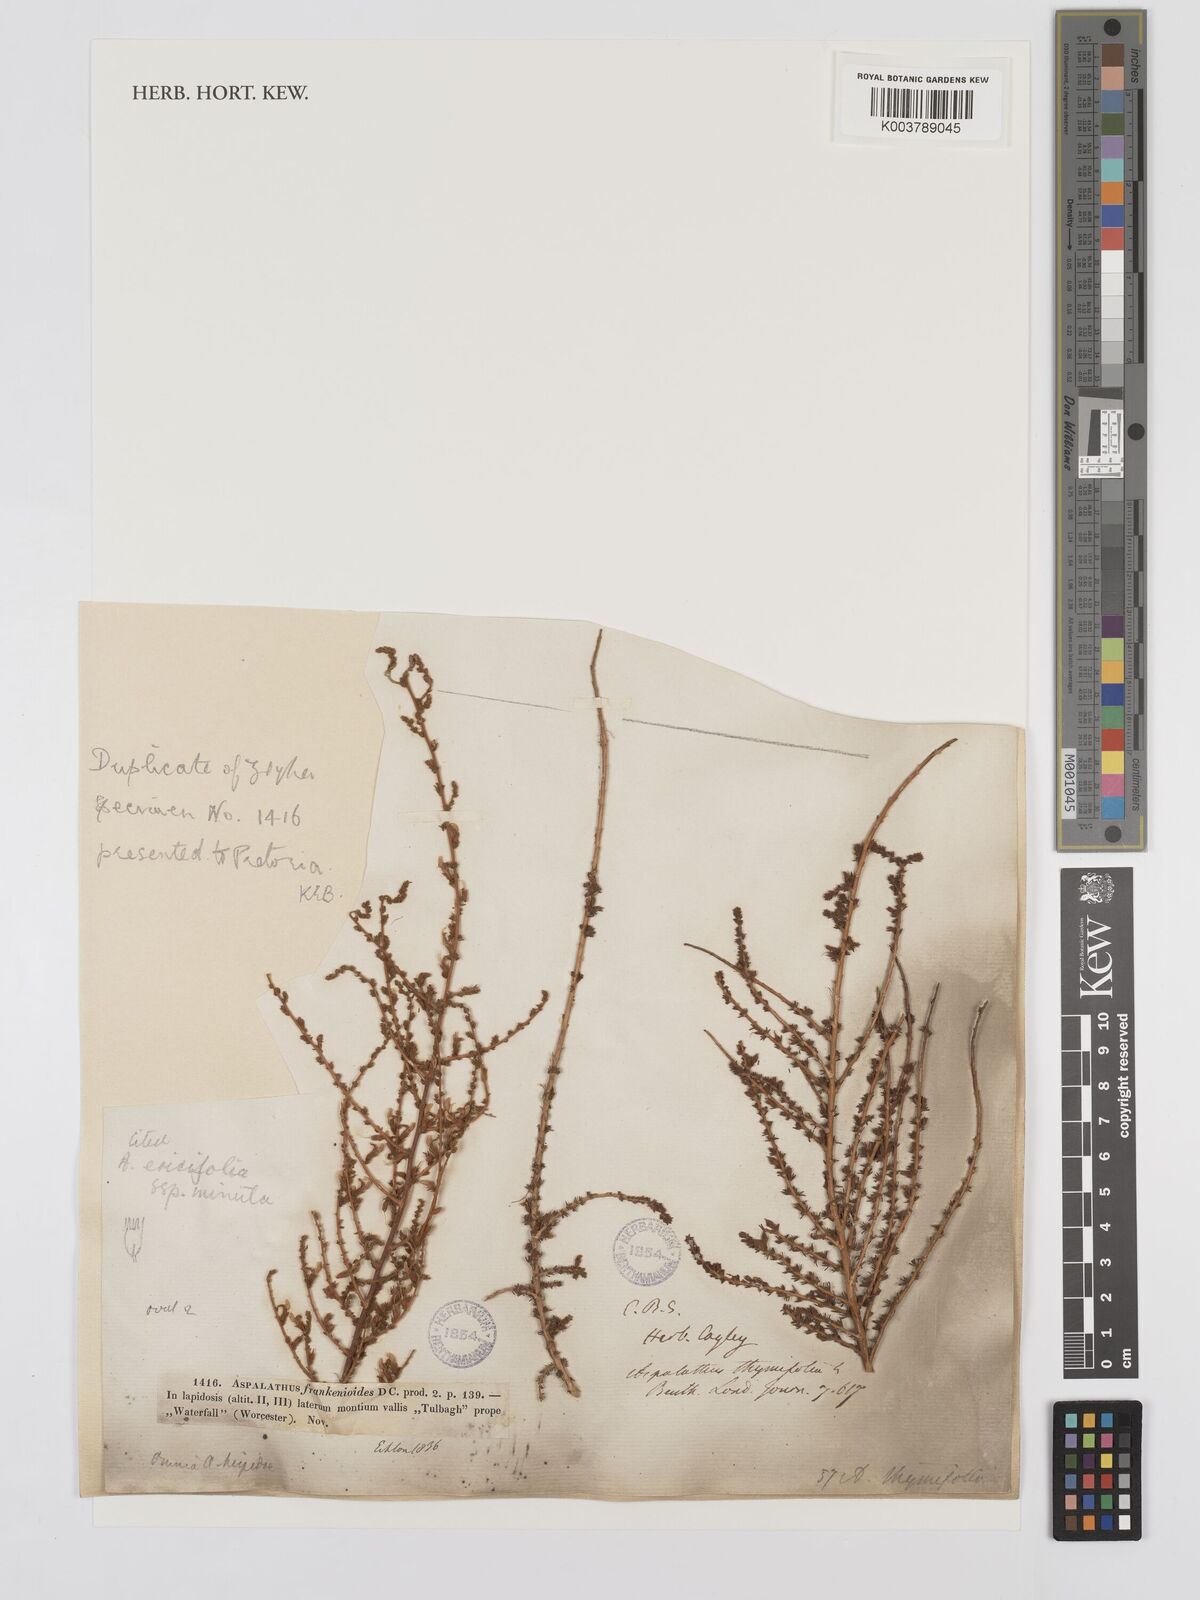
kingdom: Plantae
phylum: Tracheophyta
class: Magnoliopsida
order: Fabales
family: Fabaceae
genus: Aspalathus
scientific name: Aspalathus ericifolia
